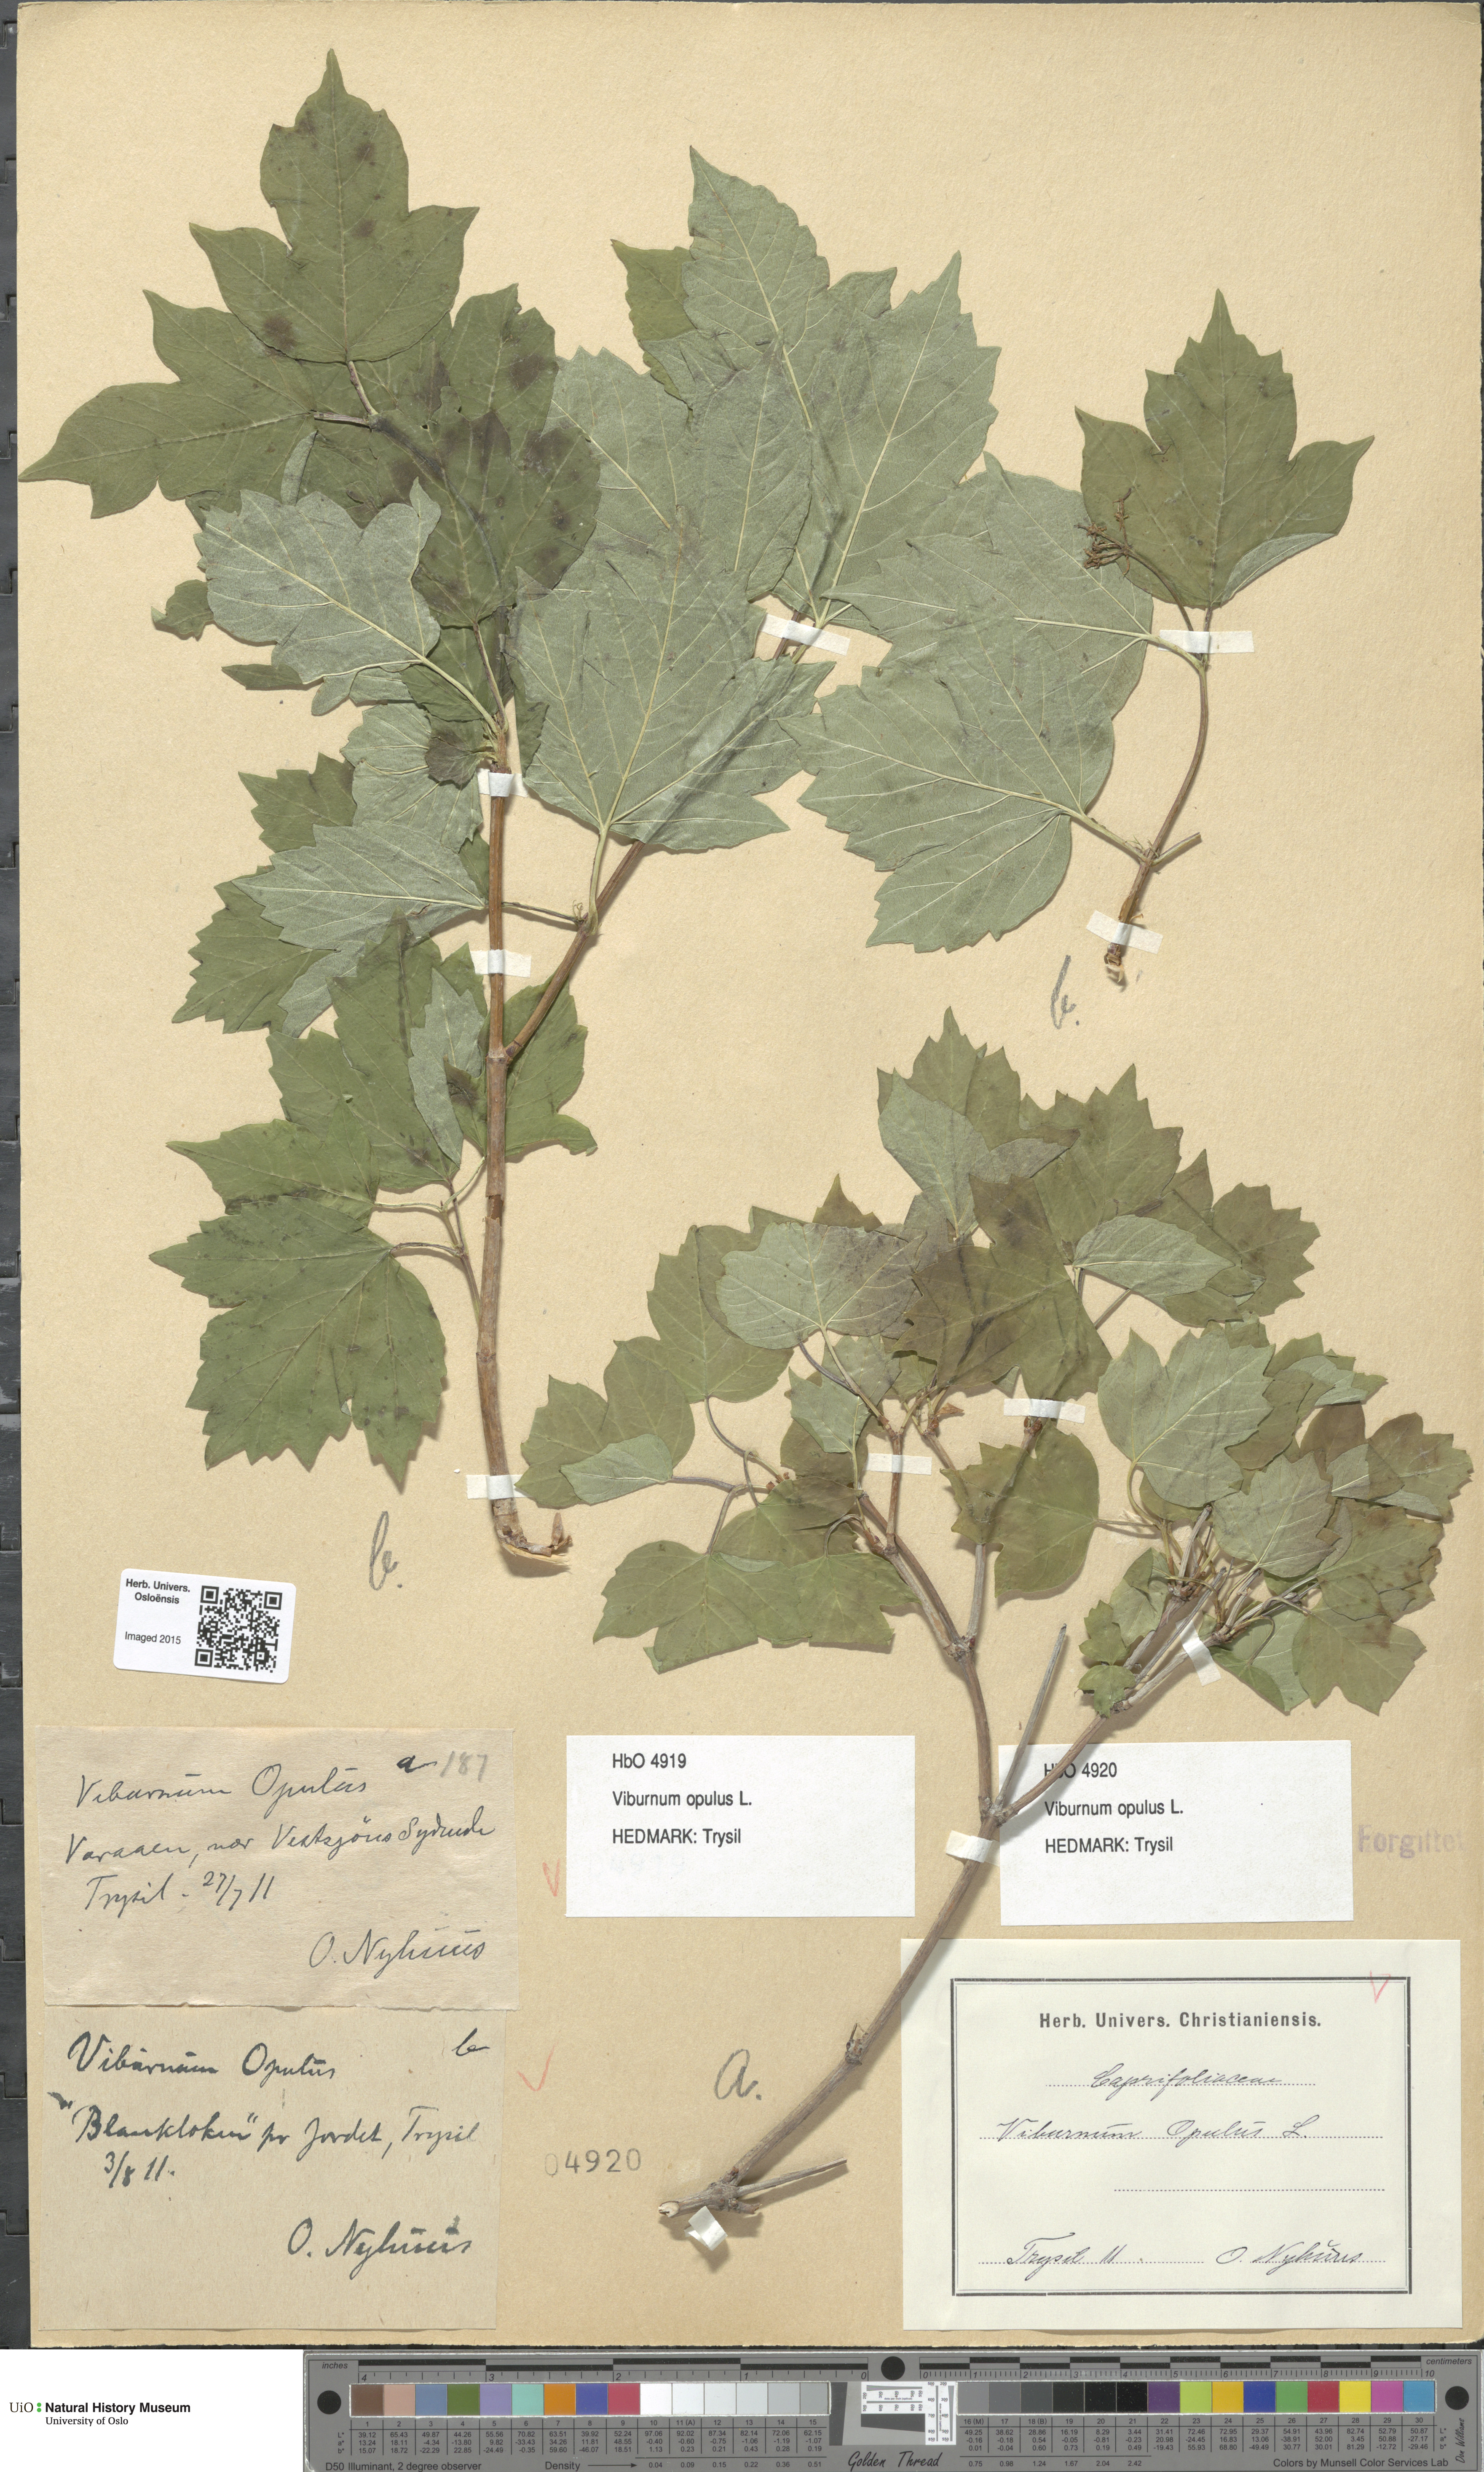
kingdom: Plantae
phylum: Tracheophyta
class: Magnoliopsida
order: Dipsacales
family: Viburnaceae
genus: Viburnum
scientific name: Viburnum opulus
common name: Guelder-rose
